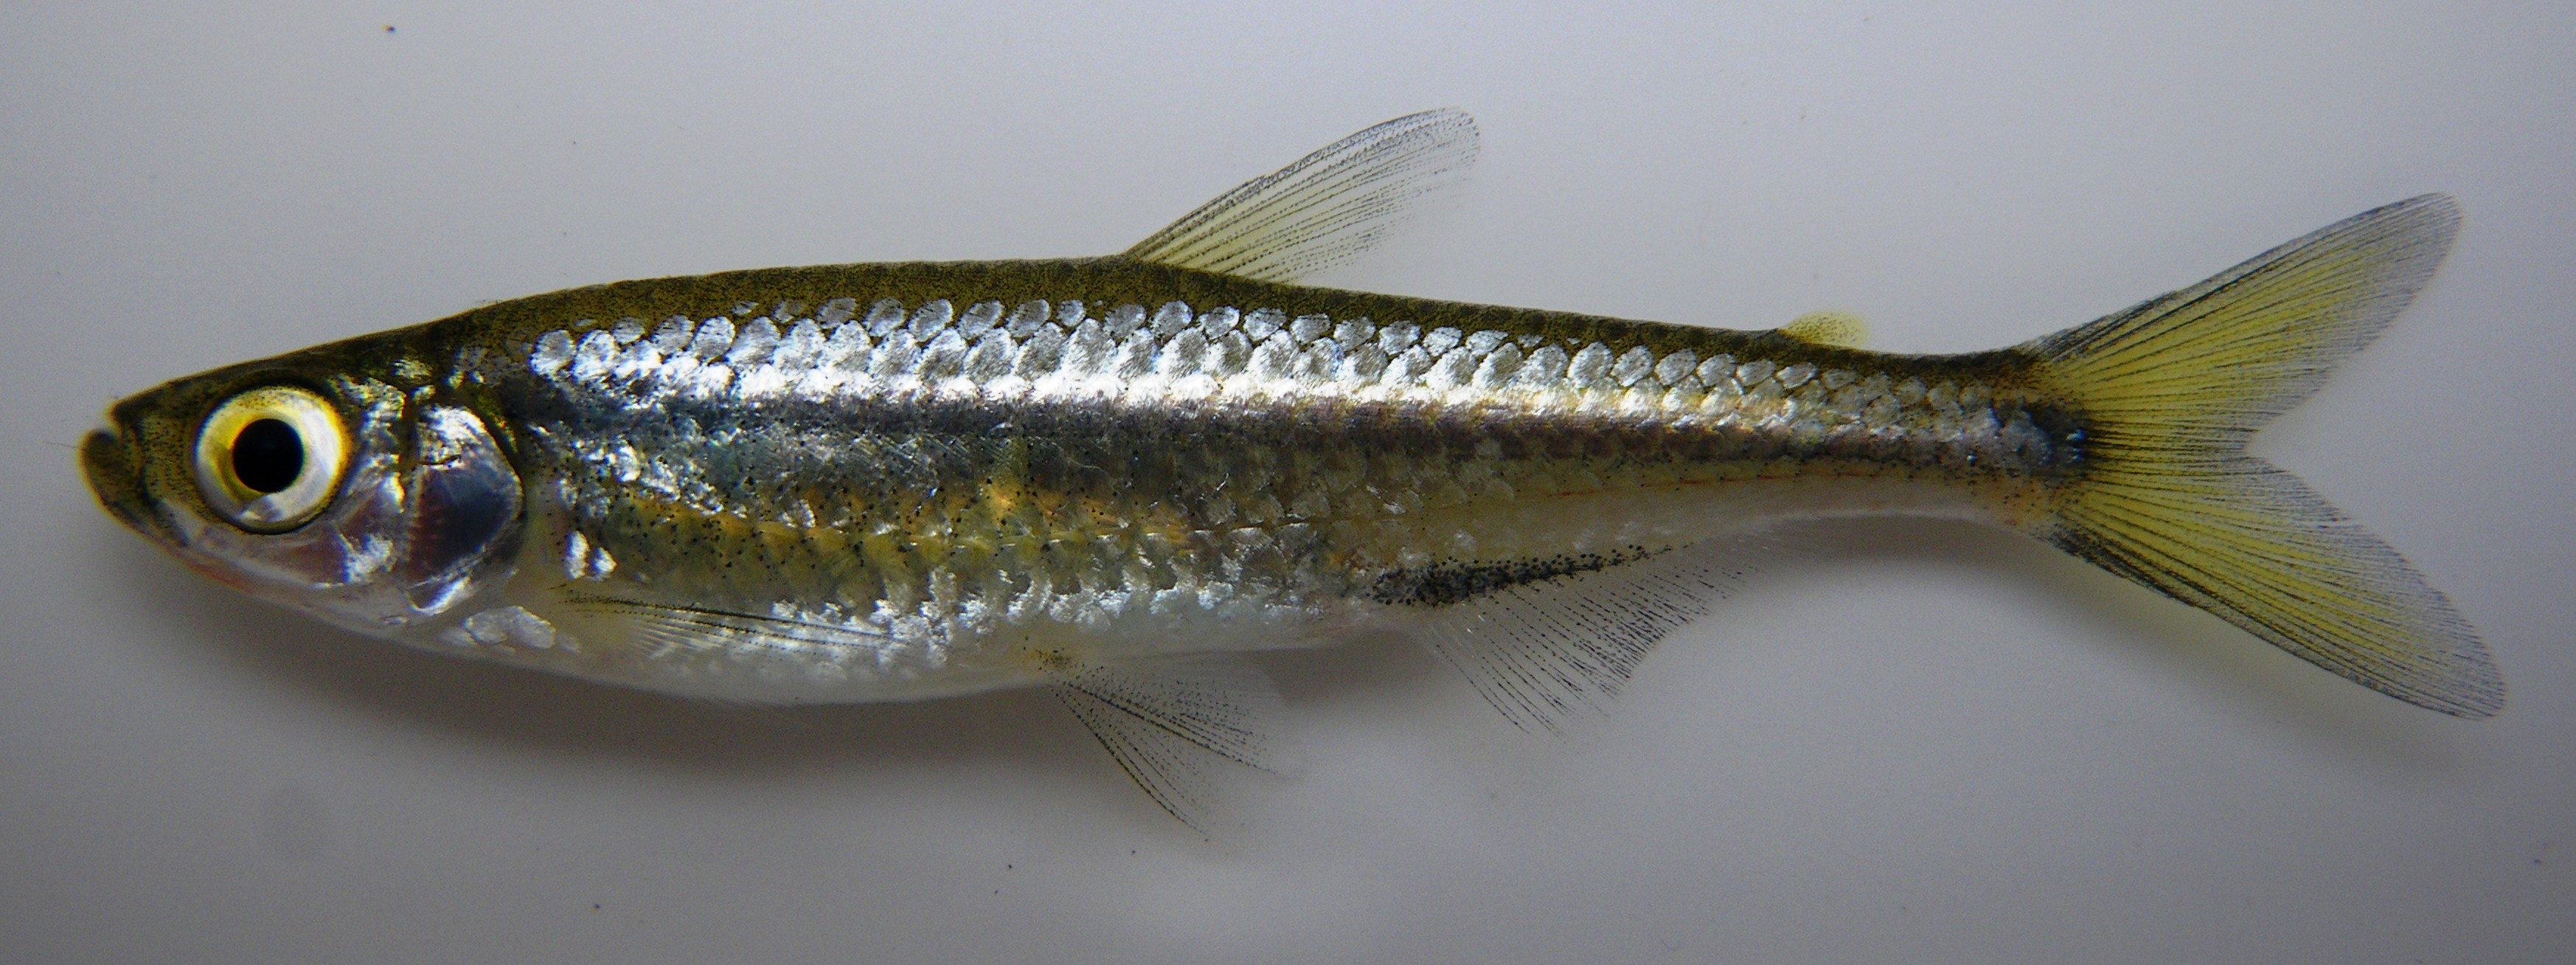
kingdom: Animalia
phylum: Chordata
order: Characiformes
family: Alestidae
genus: Rhabdalestes
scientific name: Rhabdalestes rhodesiensis
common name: Slender robber
